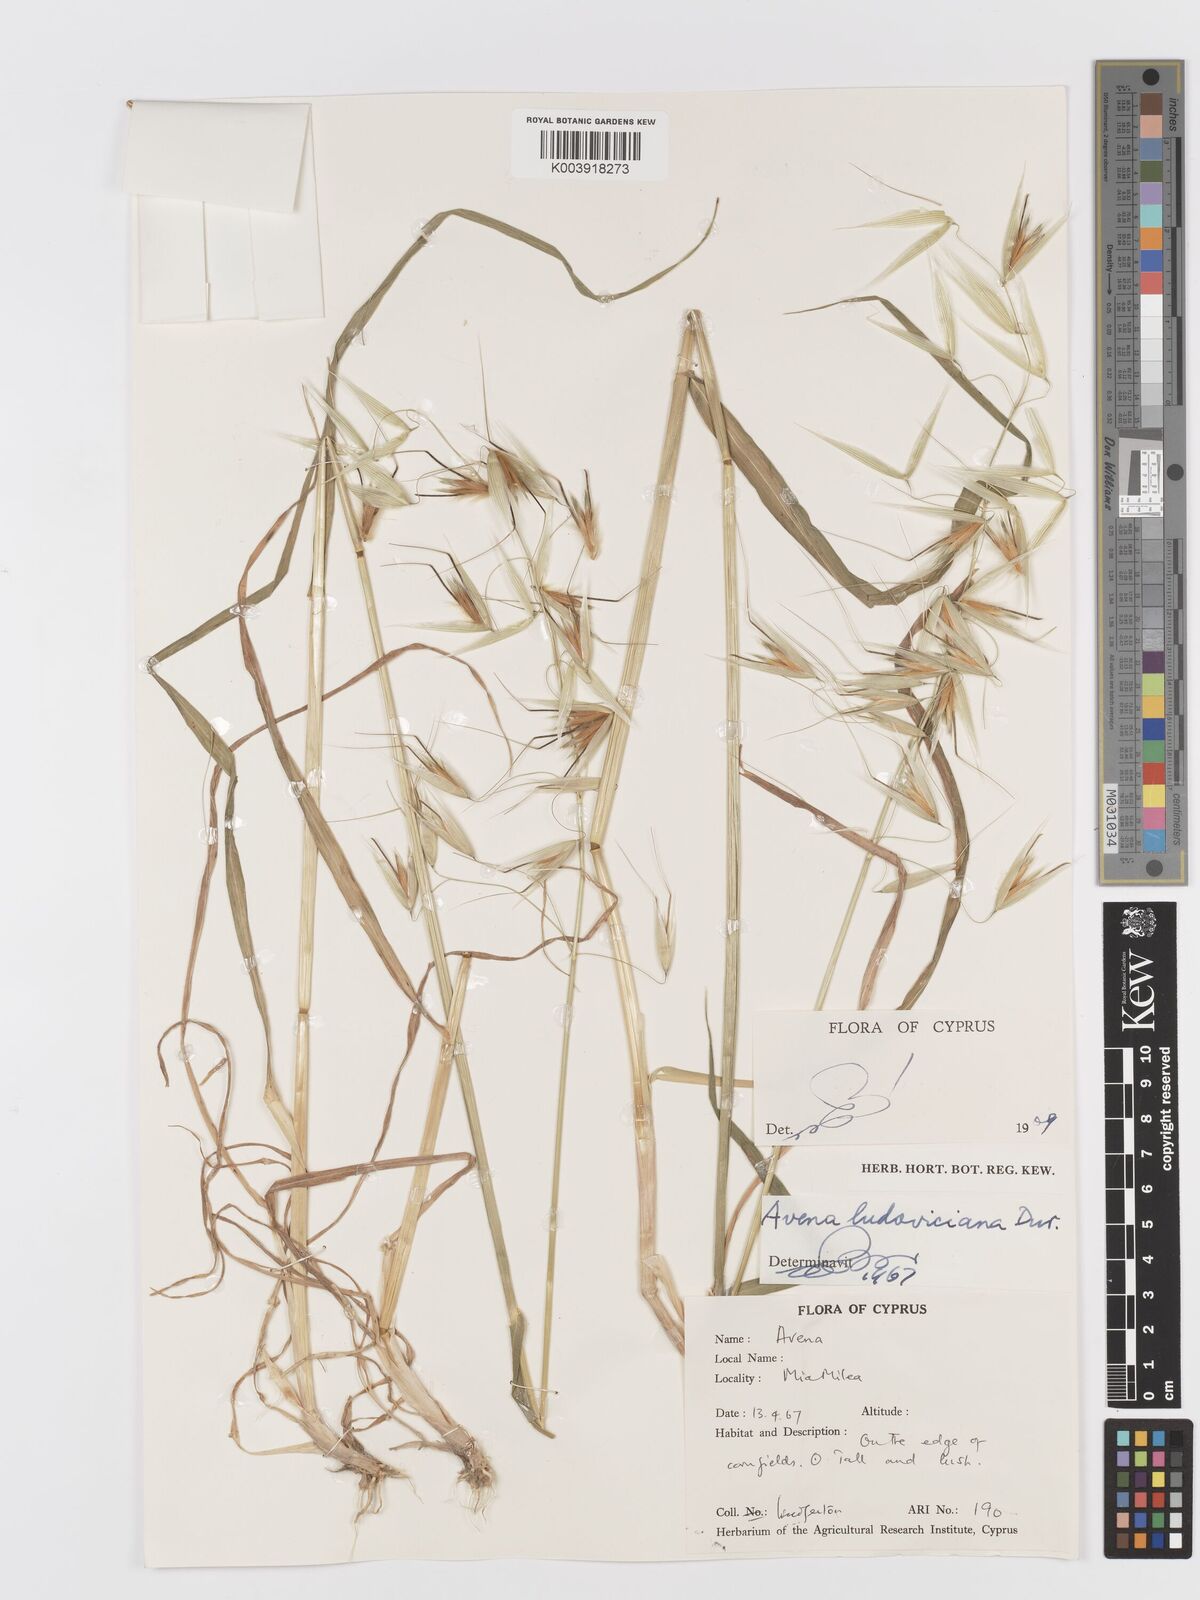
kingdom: Plantae
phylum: Tracheophyta
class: Liliopsida
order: Poales
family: Poaceae
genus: Avena
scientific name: Avena sterilis
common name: Animated oat
